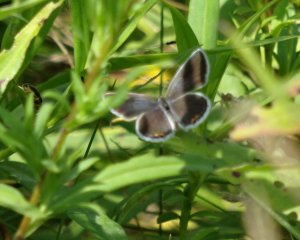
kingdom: Animalia
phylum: Arthropoda
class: Insecta
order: Lepidoptera
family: Lycaenidae
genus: Elkalyce
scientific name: Elkalyce comyntas
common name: Eastern Tailed-Blue
